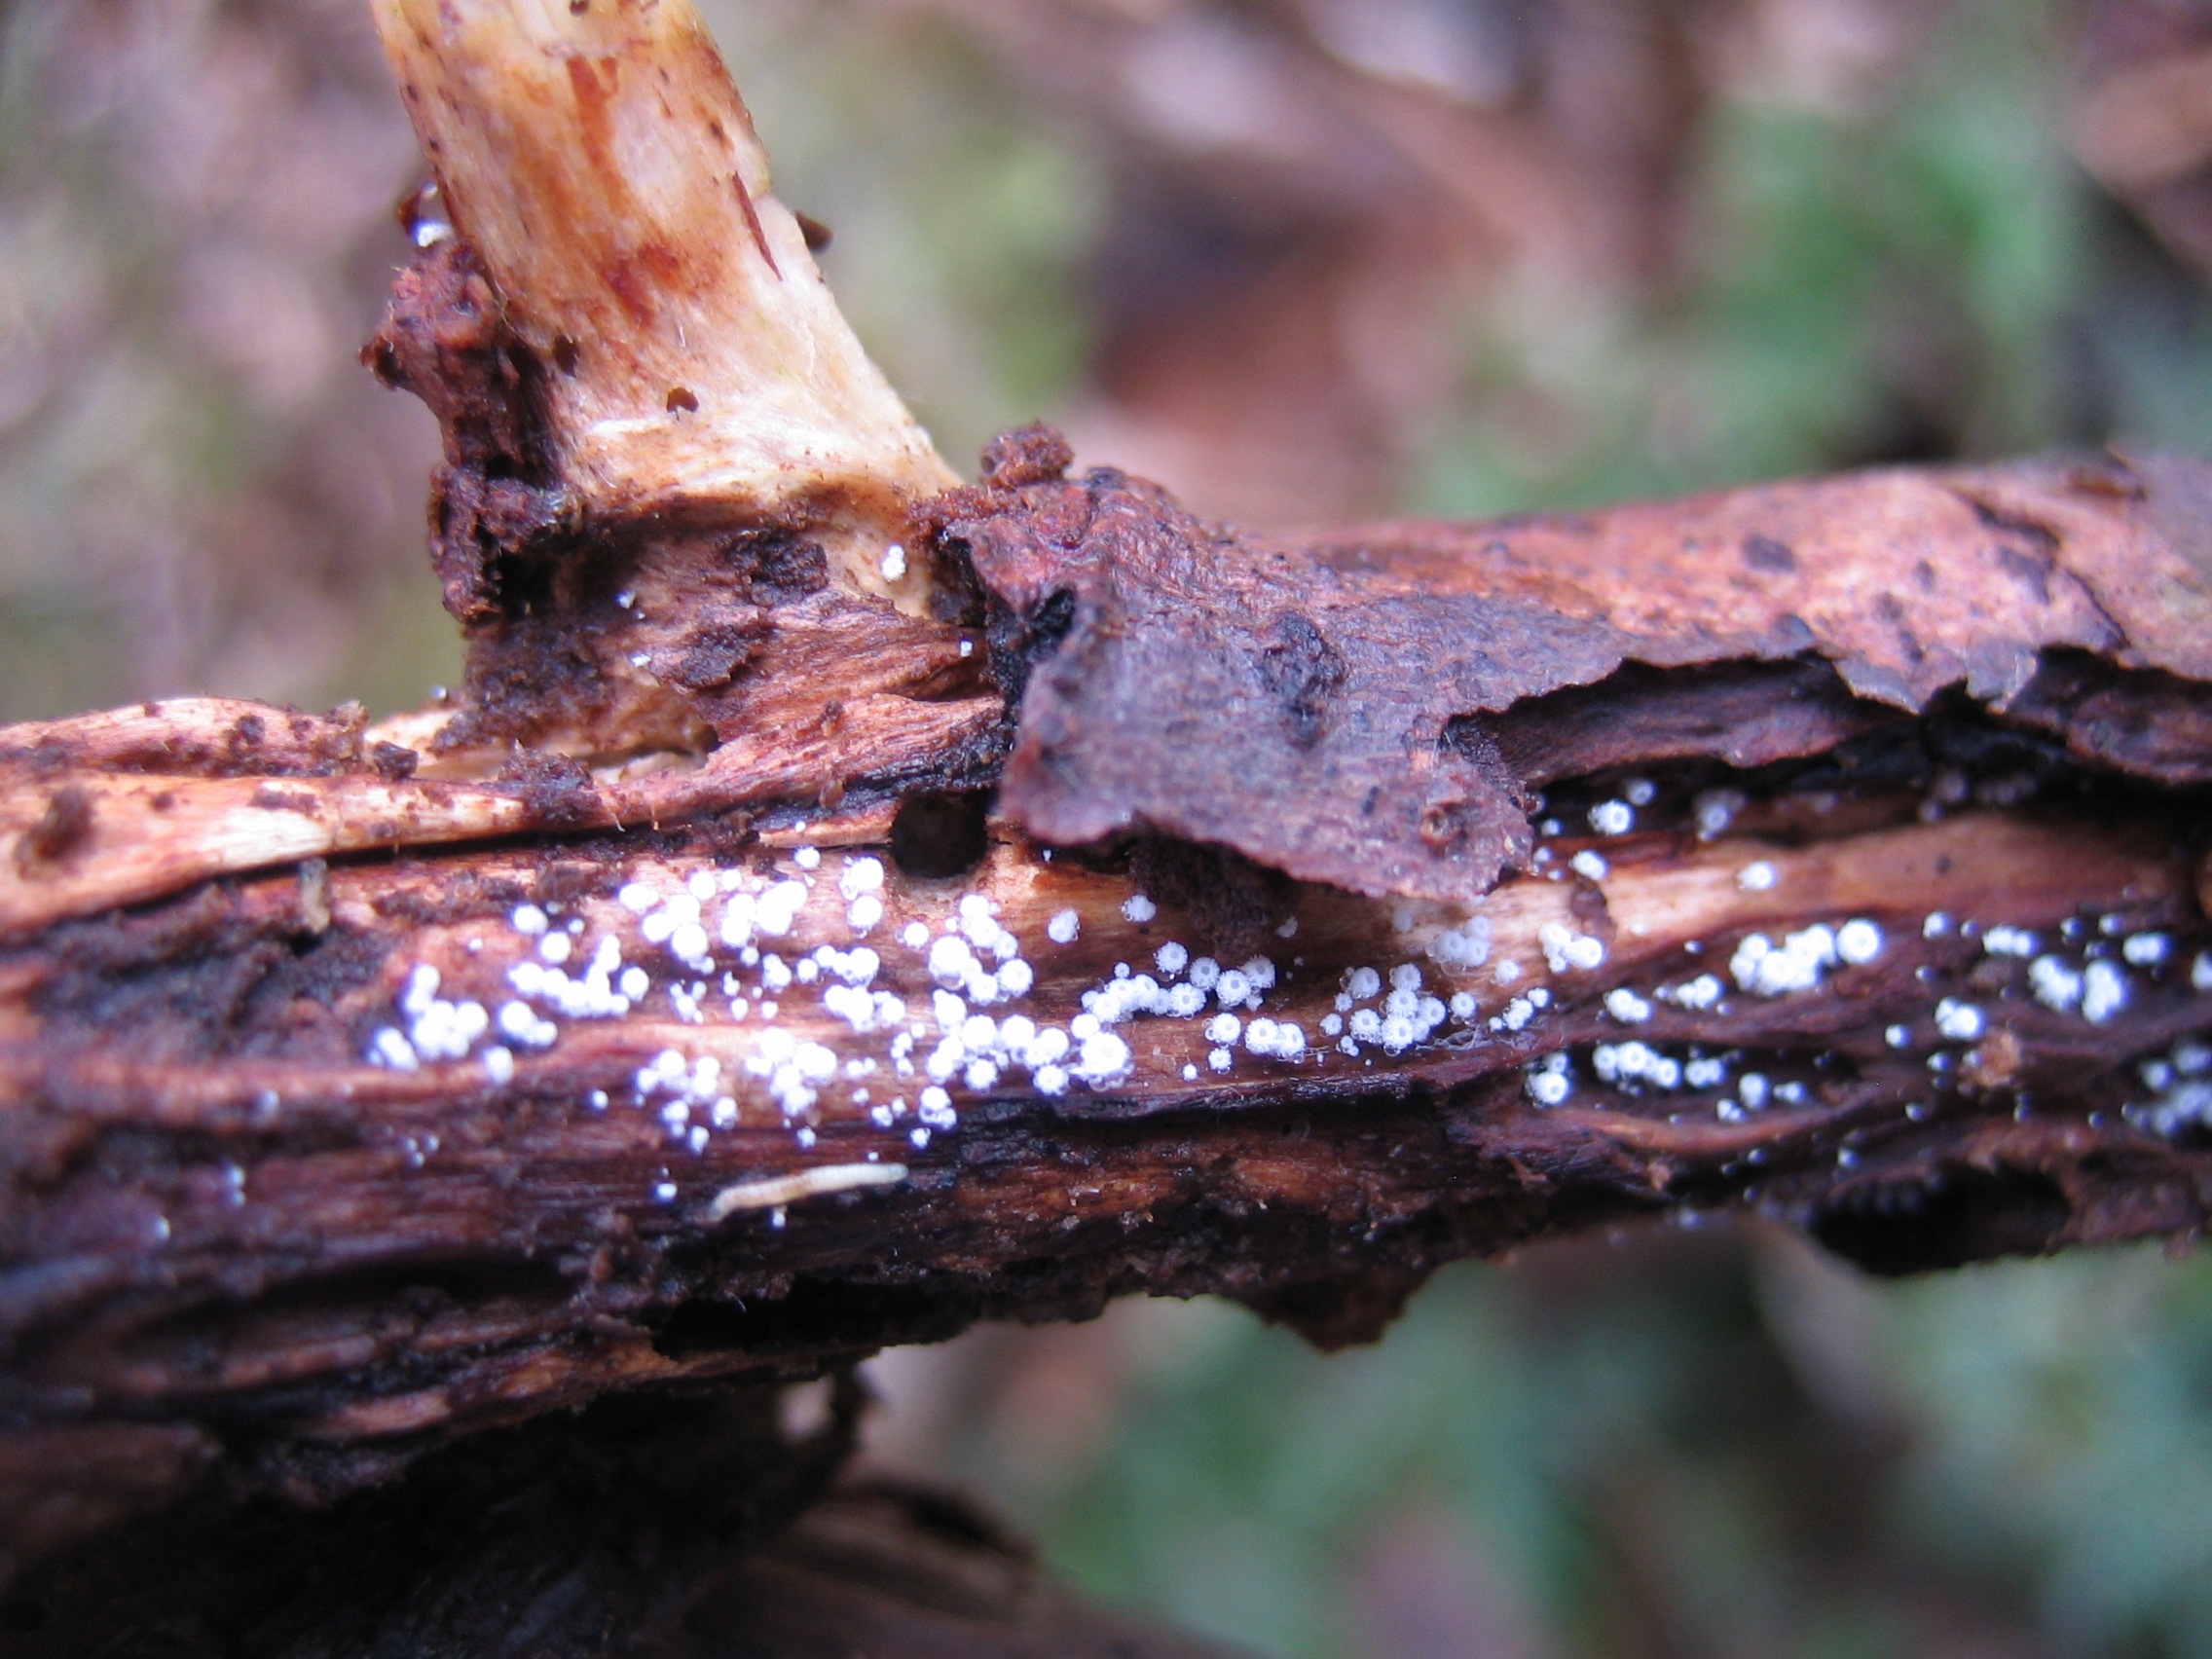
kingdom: Fungi
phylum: Ascomycota
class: Leotiomycetes
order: Helotiales
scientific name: Helotiales
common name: stilkskiveordenen
